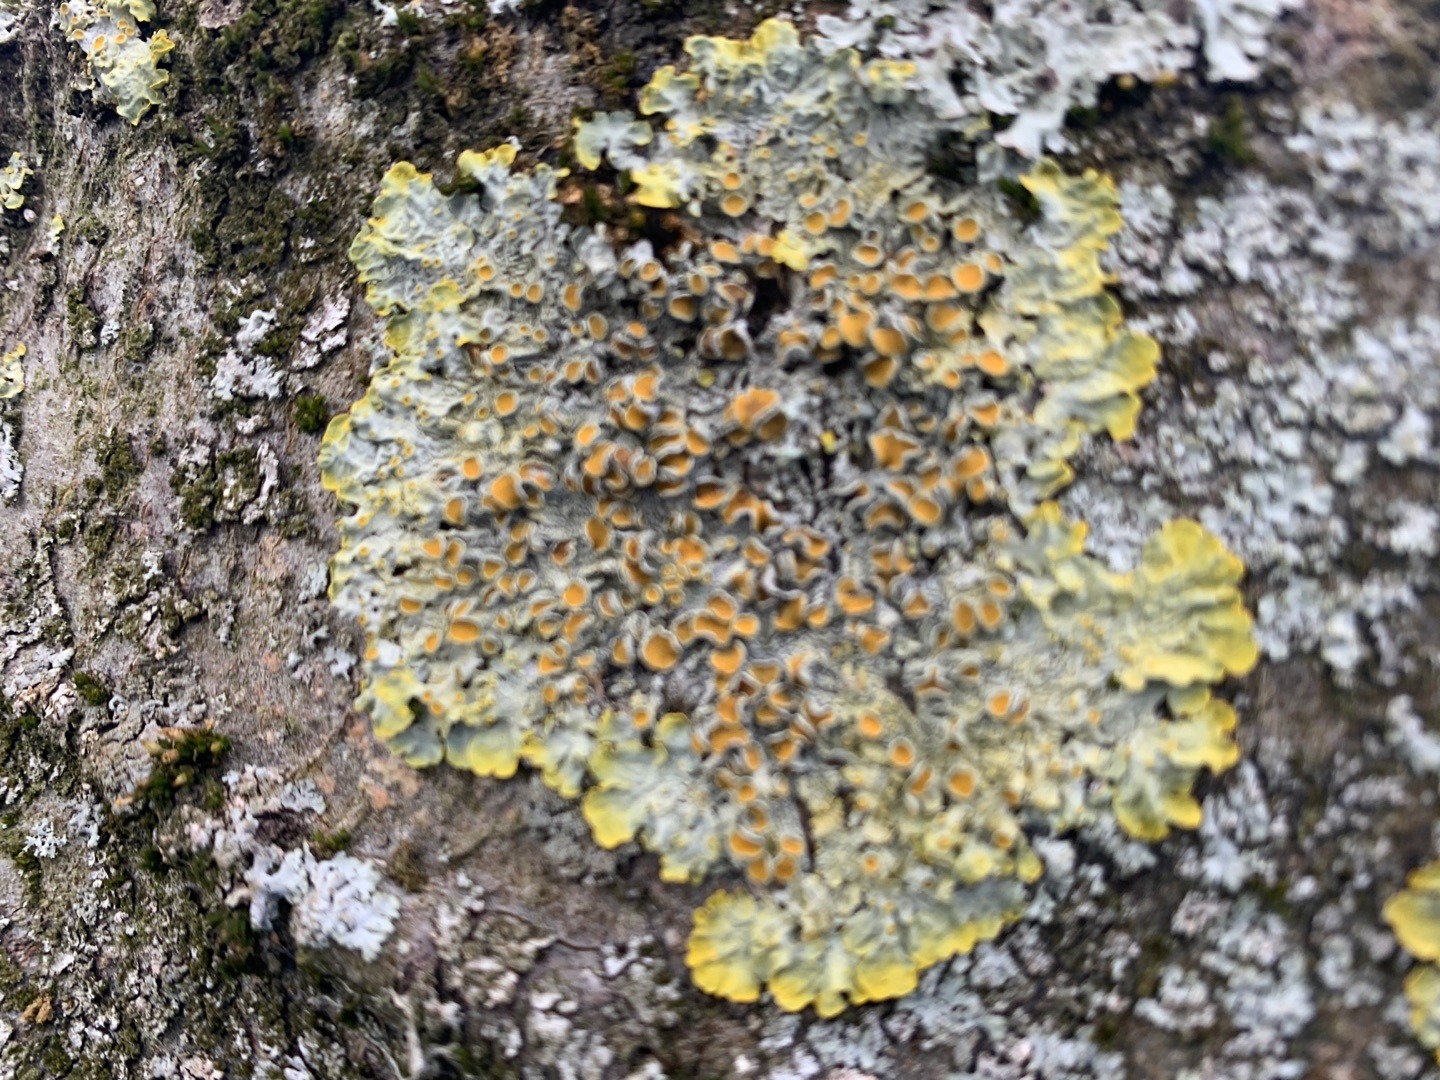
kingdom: Fungi
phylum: Ascomycota
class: Lecanoromycetes
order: Teloschistales
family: Teloschistaceae
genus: Xanthoria
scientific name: Xanthoria parietina
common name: Almindelig væggelav
